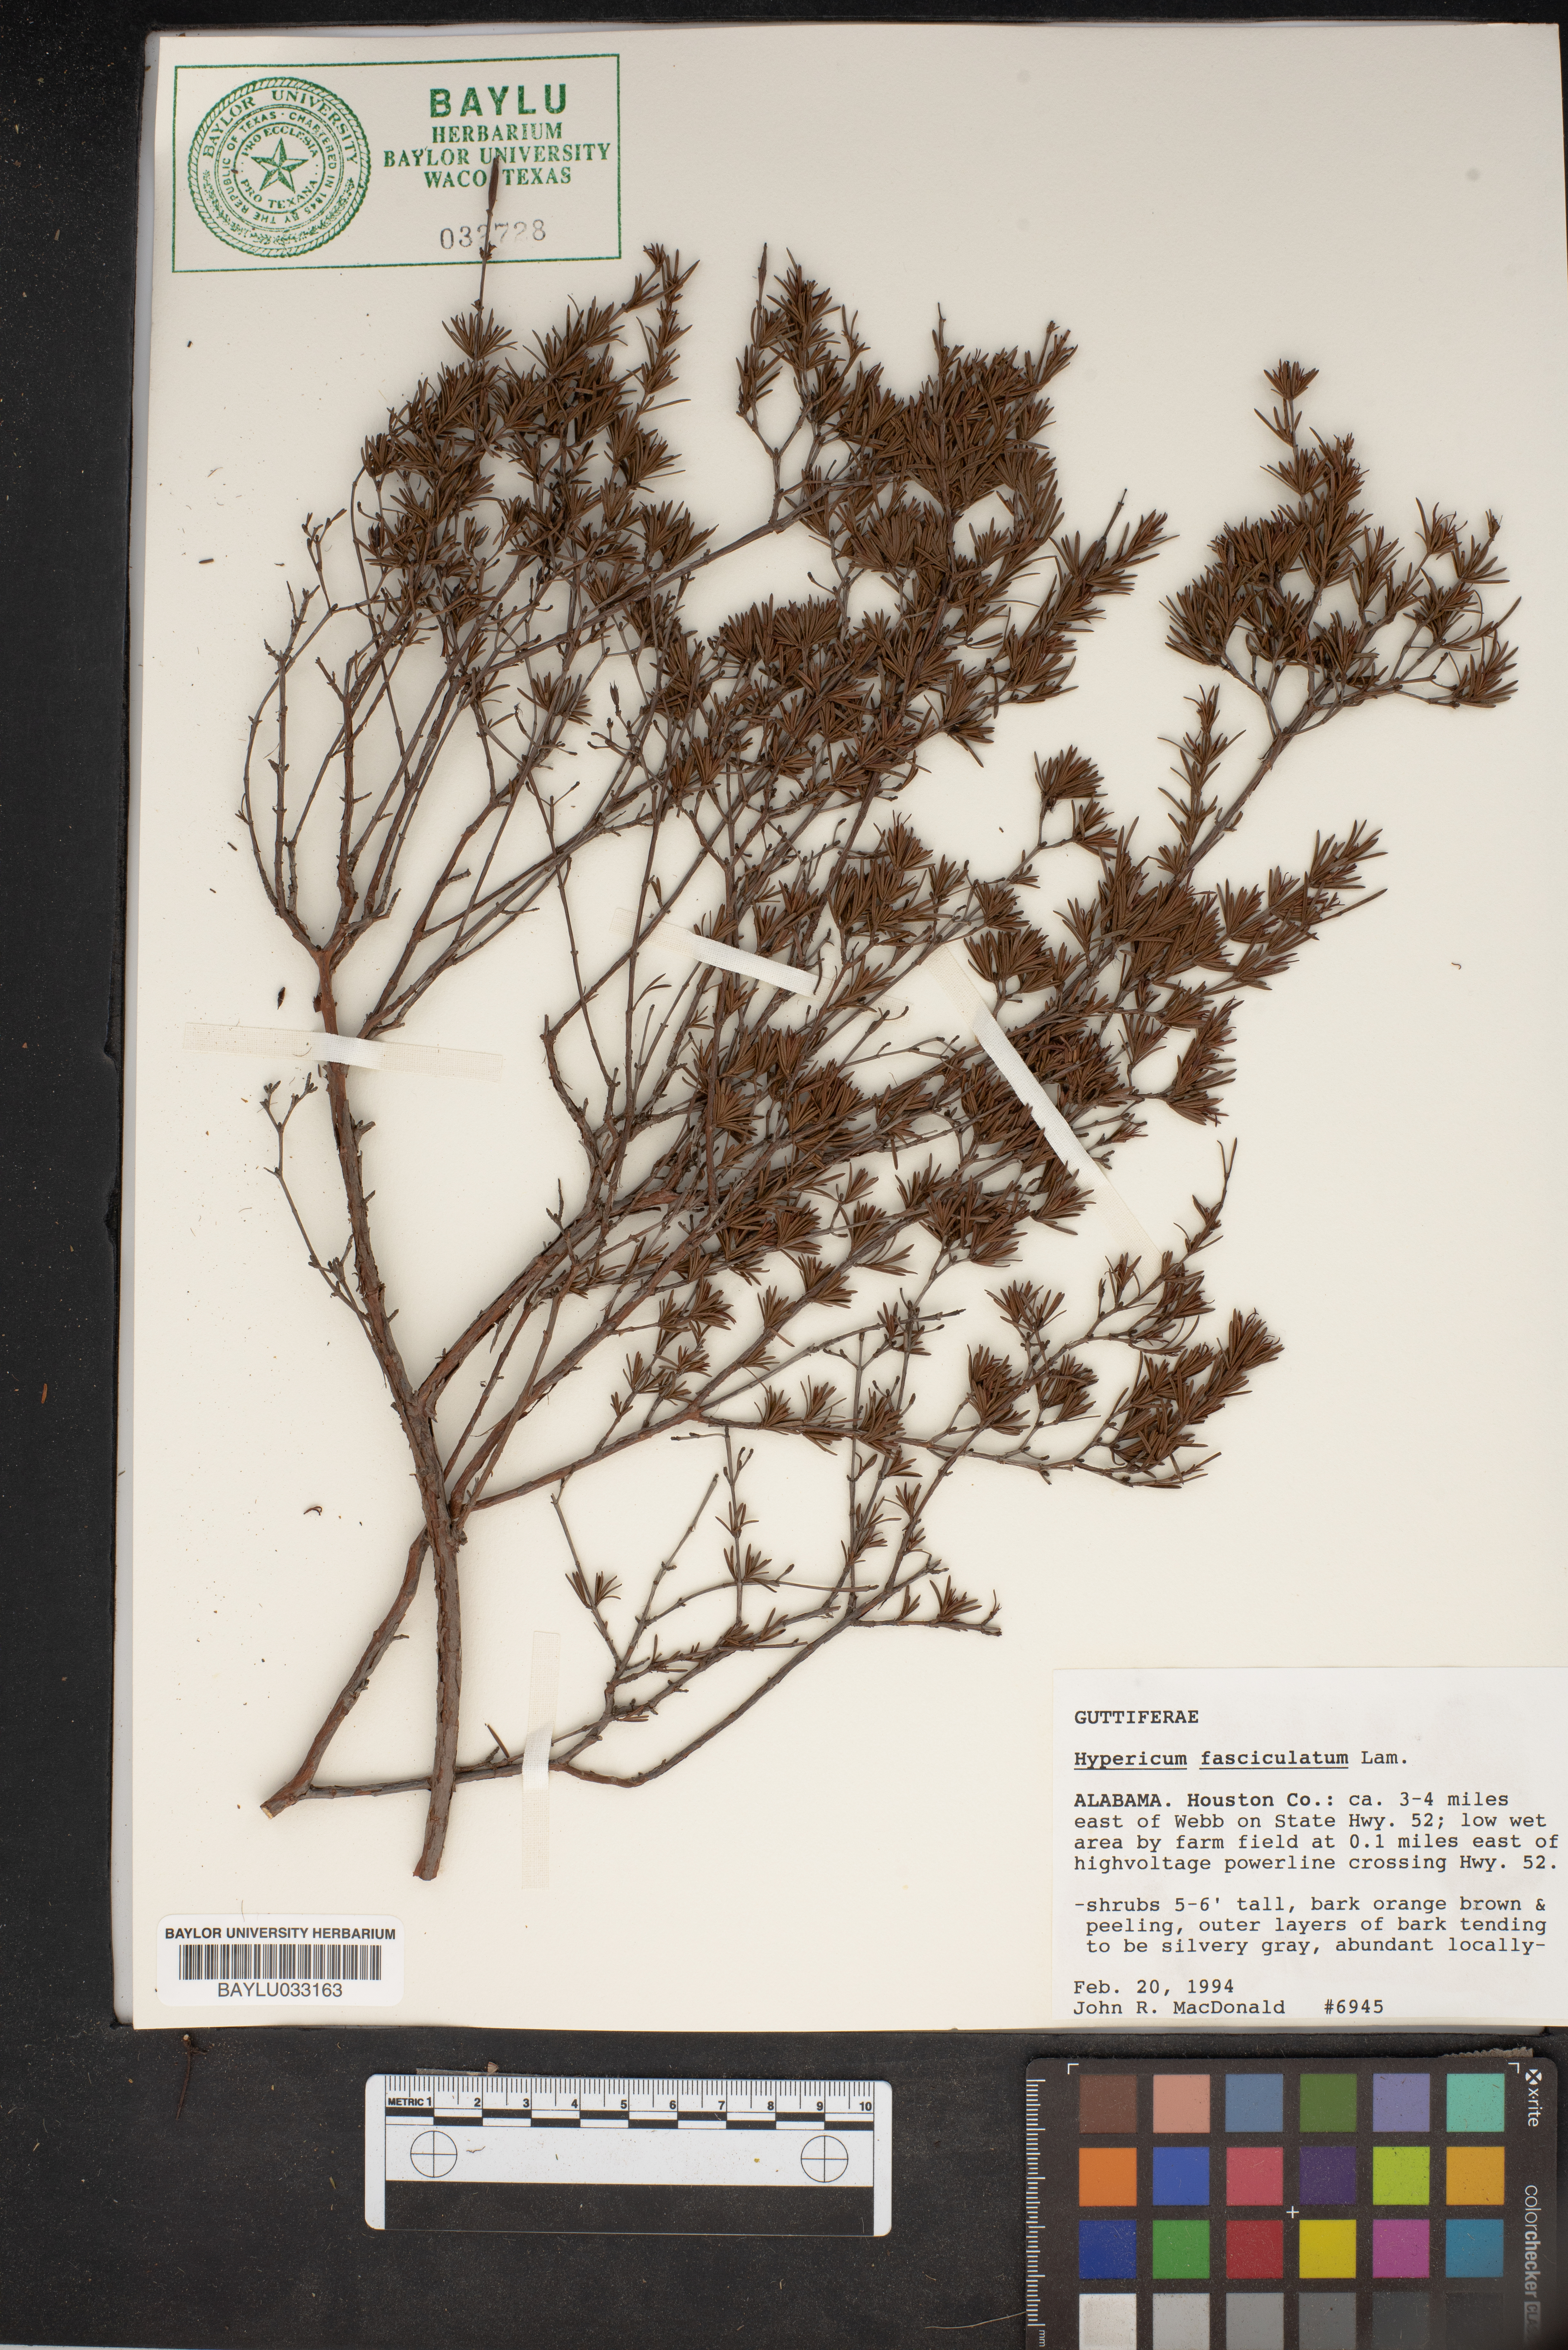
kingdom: Plantae
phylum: Tracheophyta
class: Magnoliopsida
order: Malpighiales
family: Hypericaceae
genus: Hypericum
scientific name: Hypericum fasciculatum
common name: Peelbark st. john's wort
